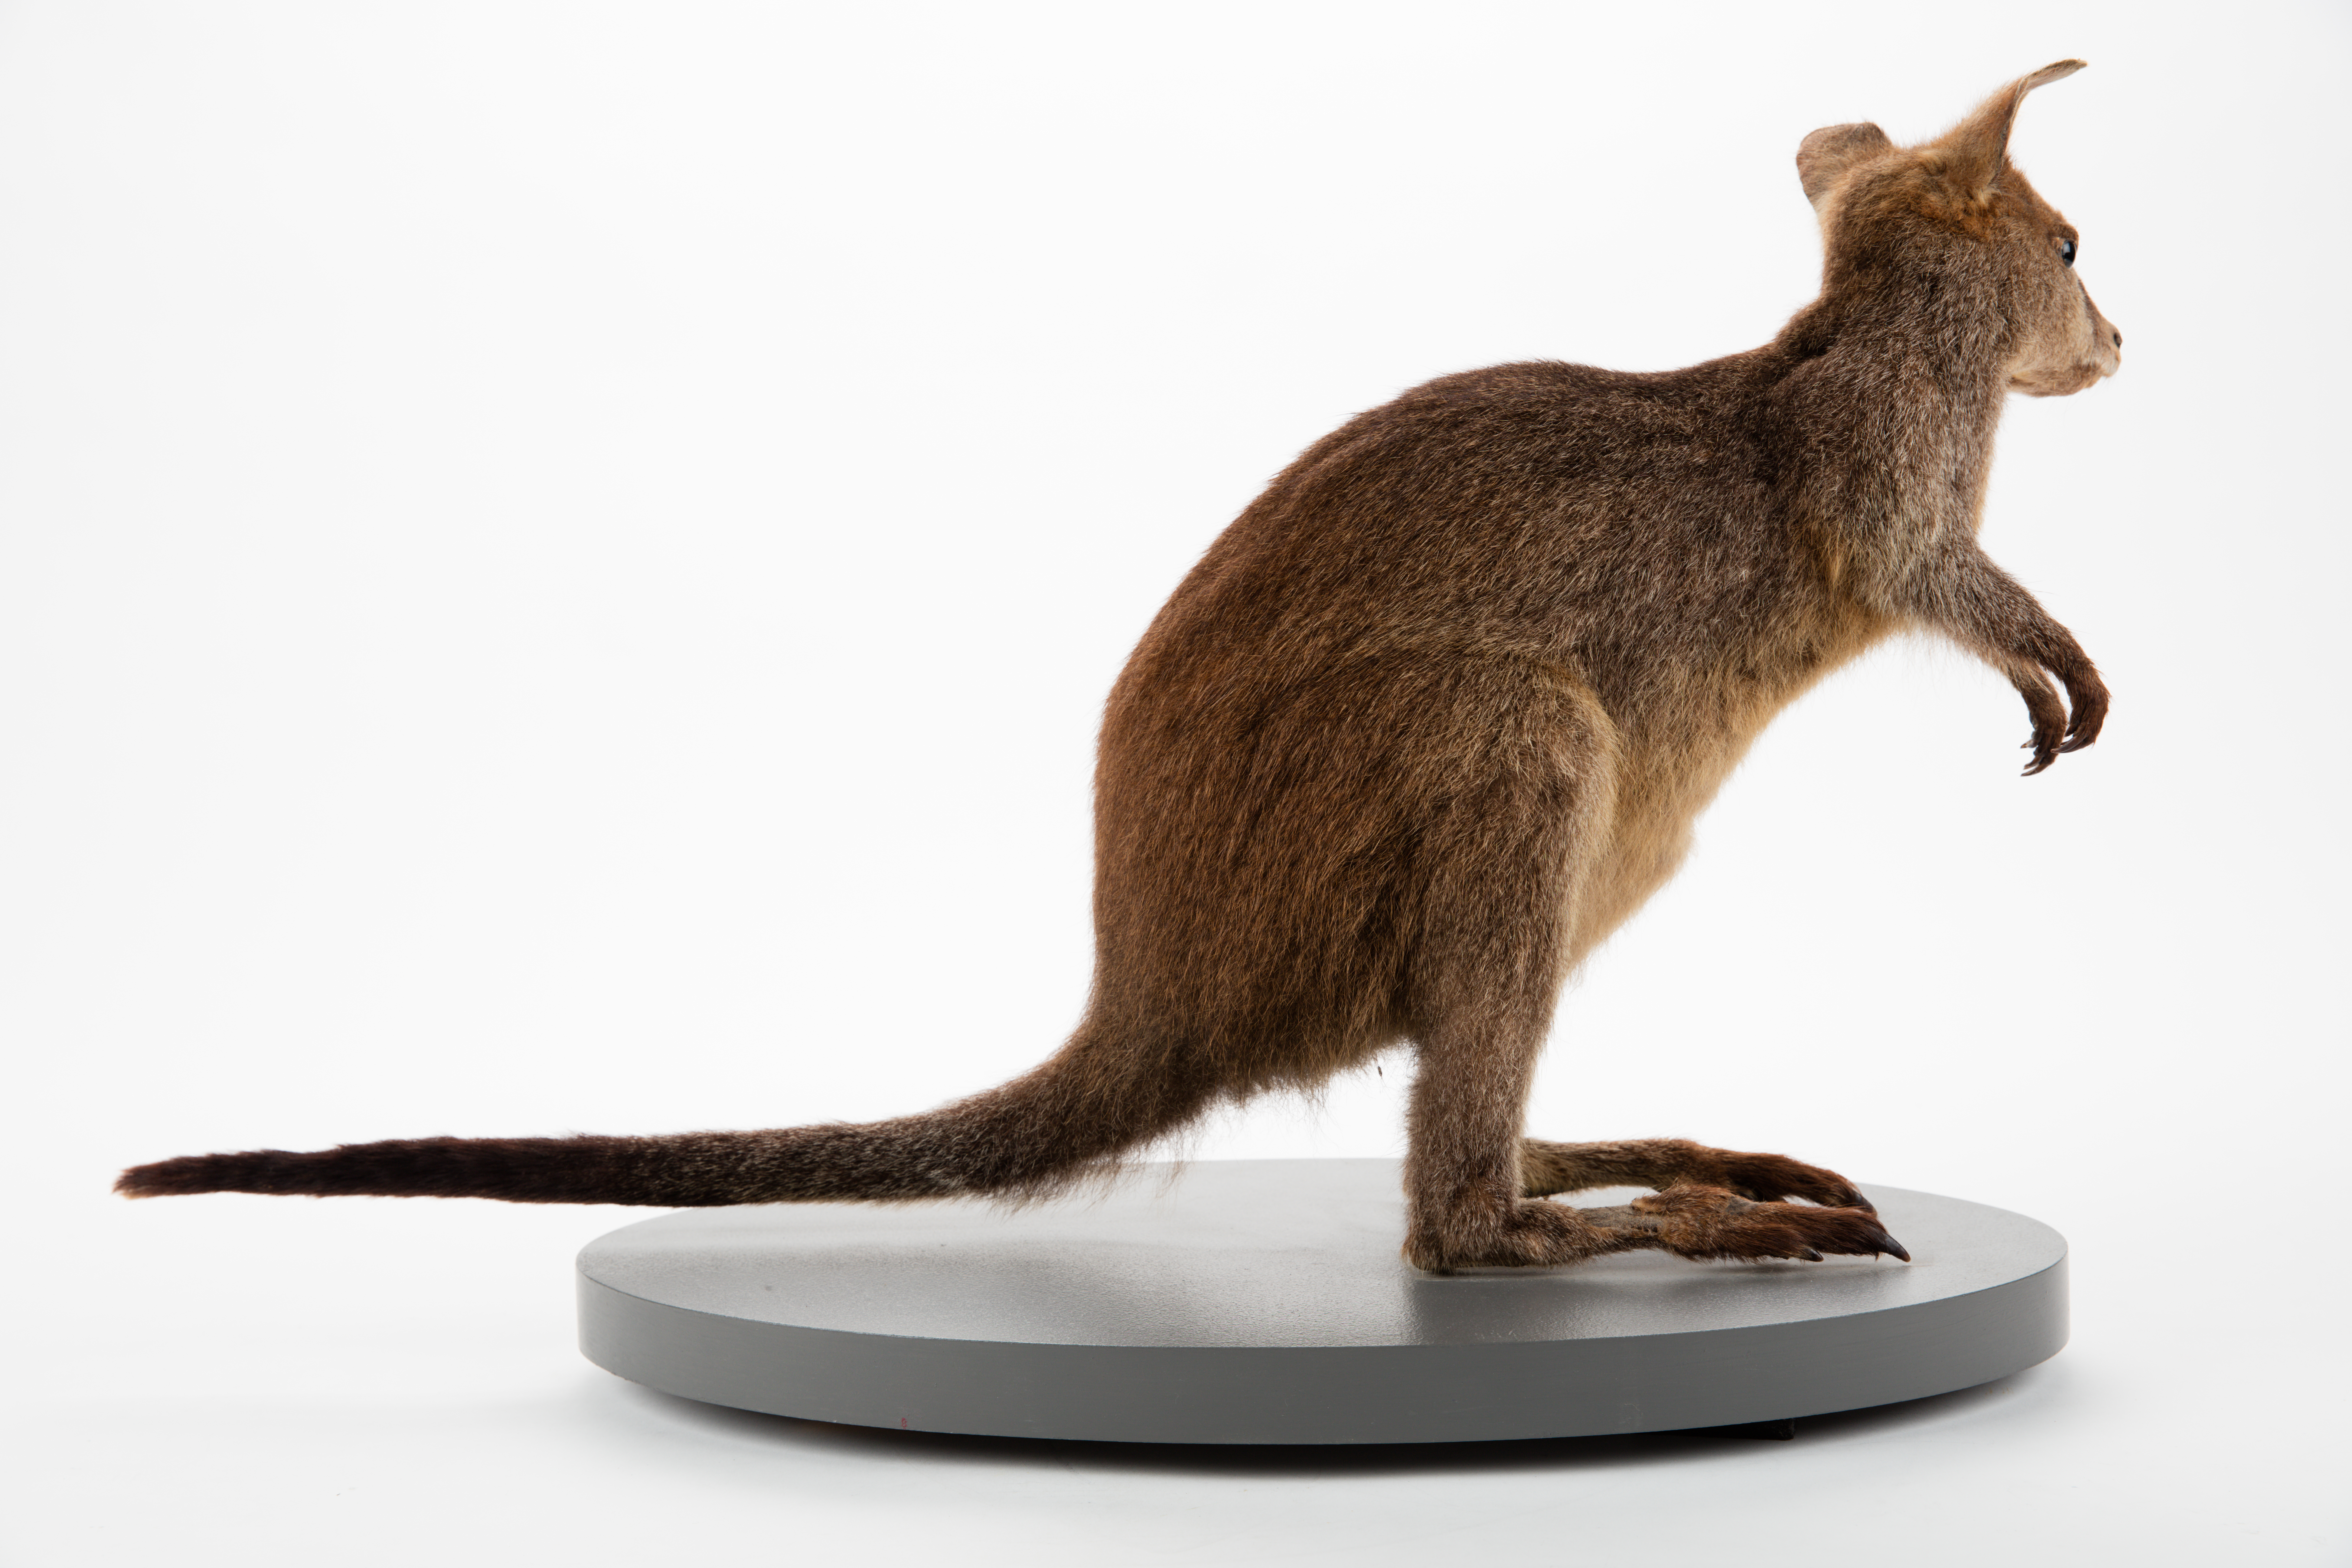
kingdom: Animalia
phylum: Chordata
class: Mammalia
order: Diprotodontia
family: Macropodidae
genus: Wallabia
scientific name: Wallabia bicolor
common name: Swamp wallaby
